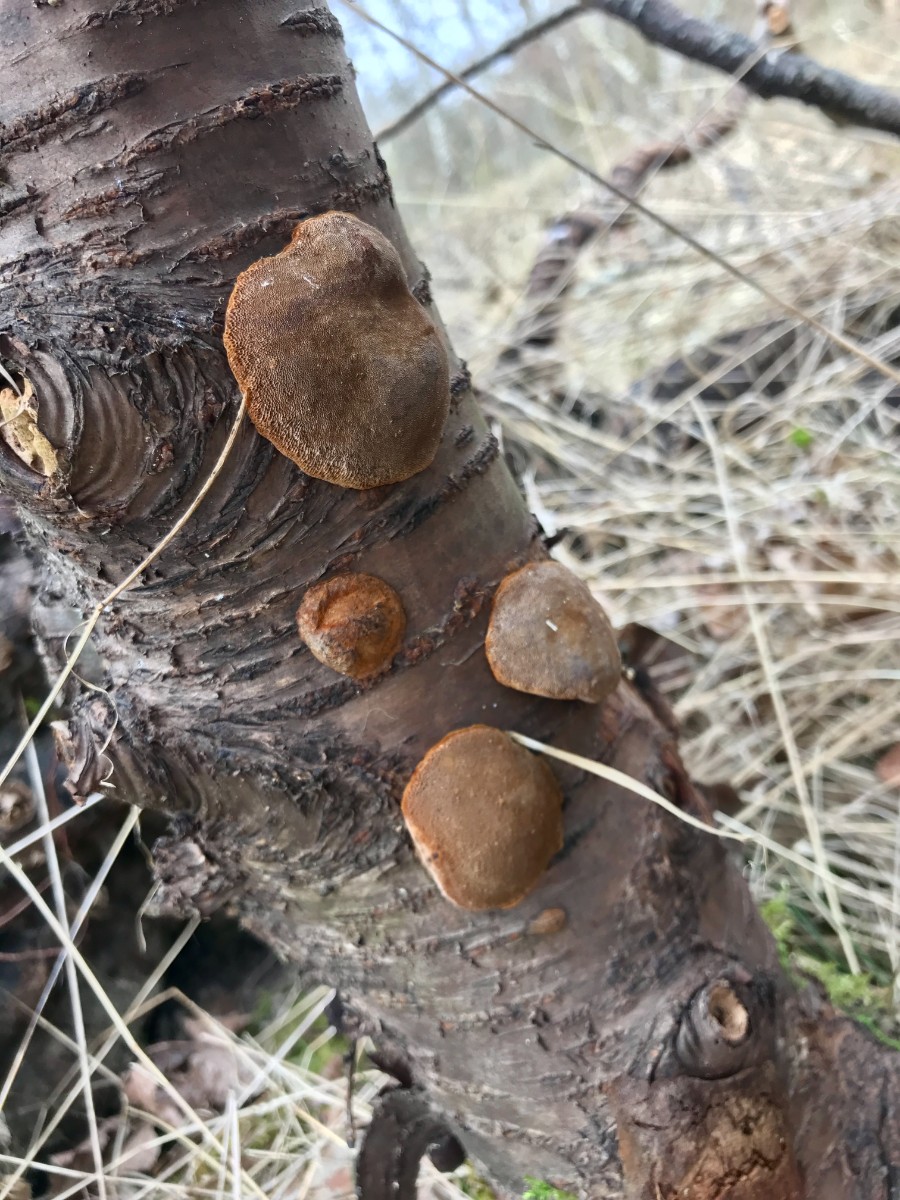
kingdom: Fungi
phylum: Basidiomycota
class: Agaricomycetes
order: Hymenochaetales
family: Hymenochaetaceae
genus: Phellinus
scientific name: Phellinus pomaceus
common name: blomme-ildporesvamp
